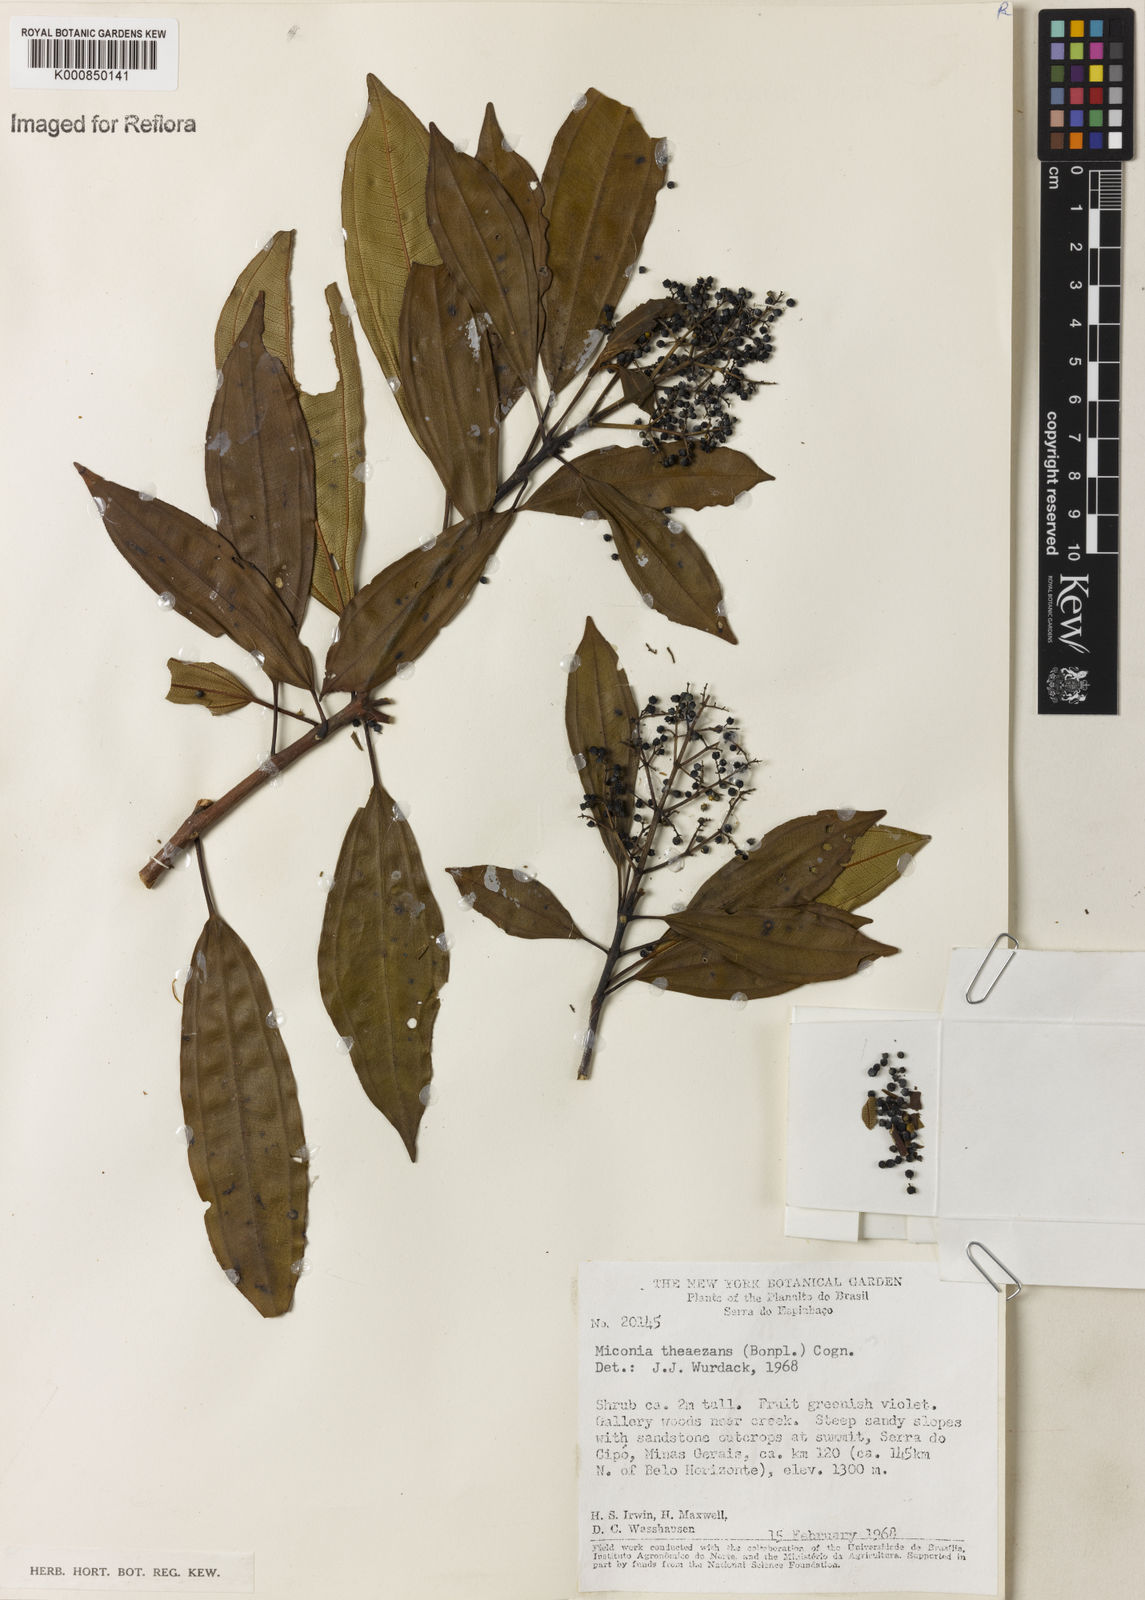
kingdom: Plantae
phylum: Tracheophyta
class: Magnoliopsida
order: Myrtales
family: Melastomataceae
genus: Miconia
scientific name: Miconia
